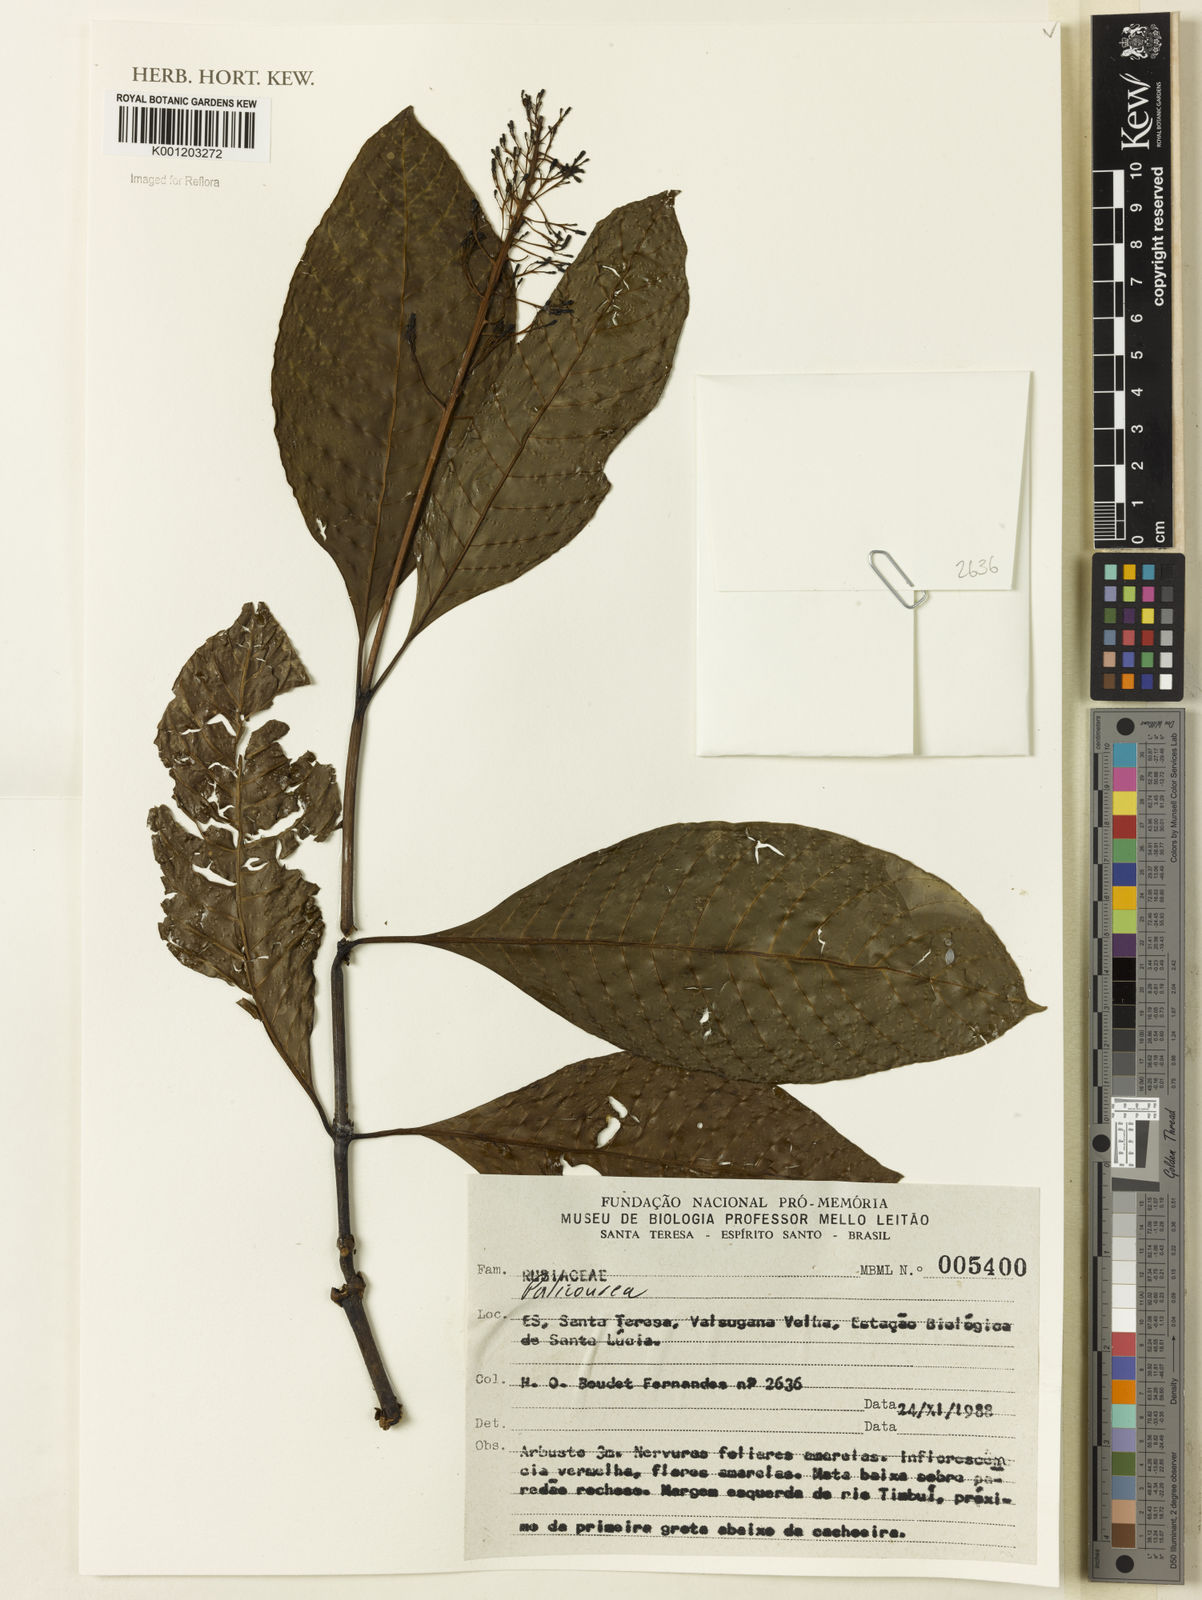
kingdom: Plantae
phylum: Tracheophyta
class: Magnoliopsida
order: Gentianales
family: Rubiaceae
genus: Palicourea
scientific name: Palicourea
